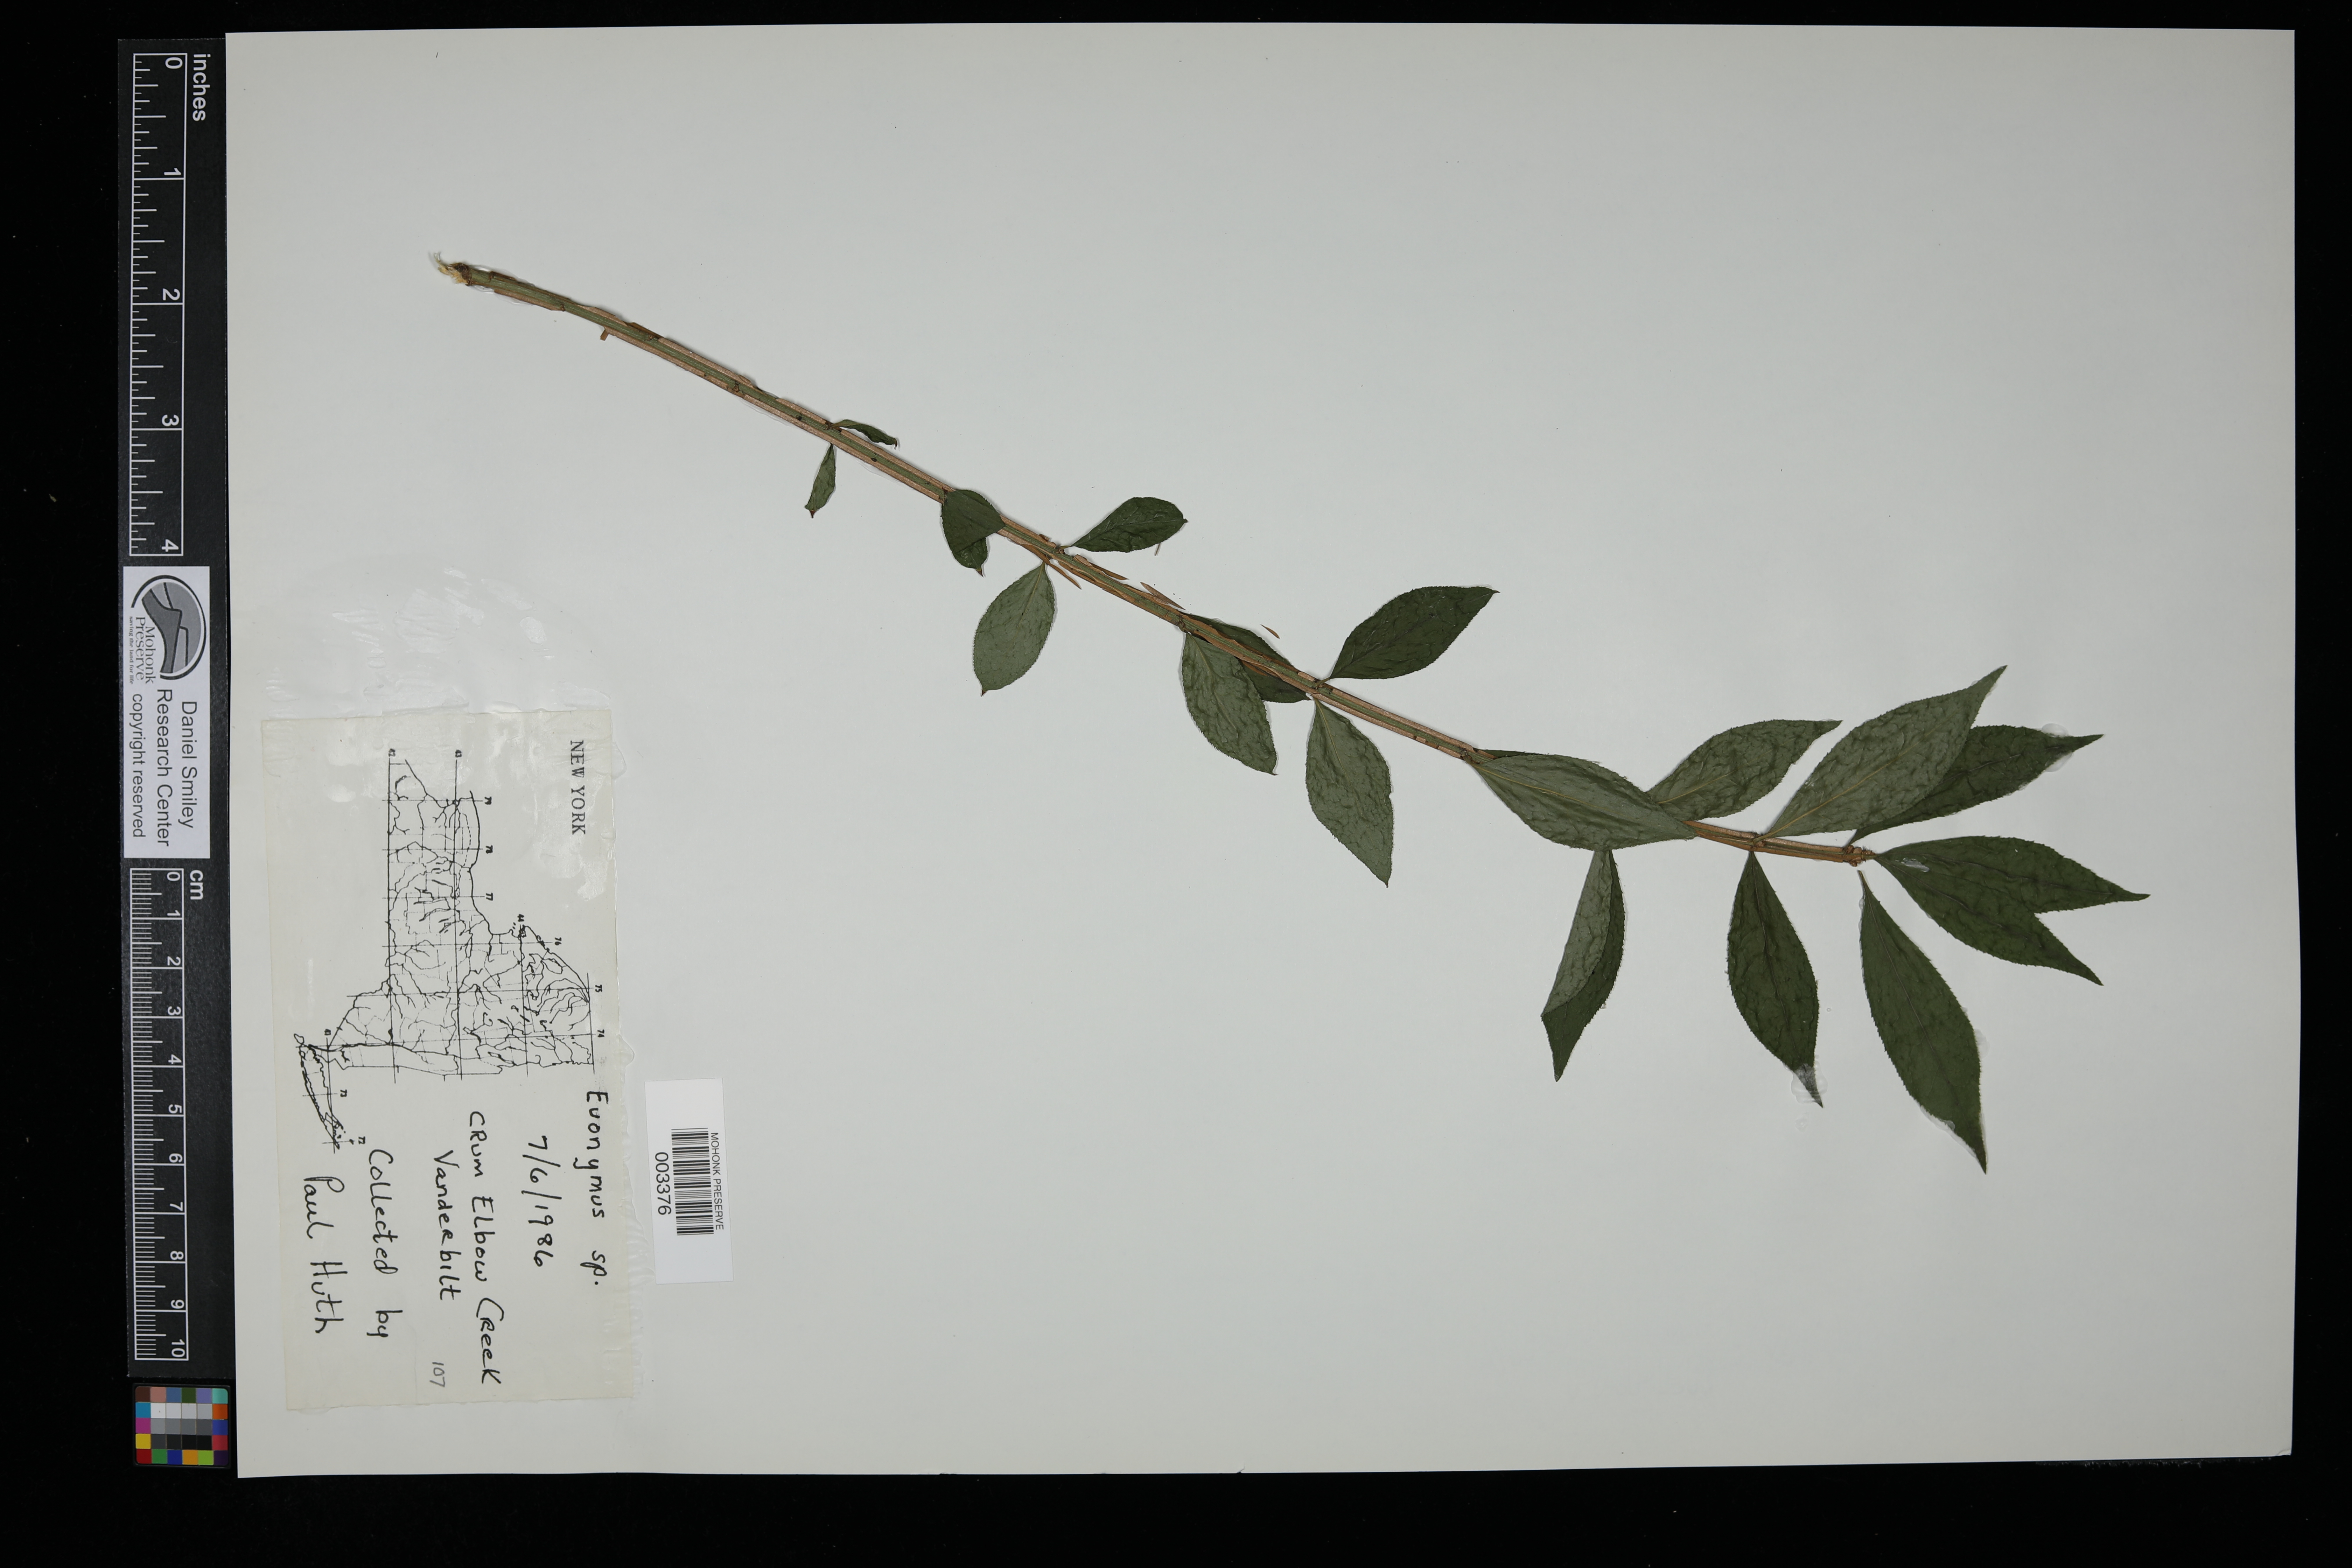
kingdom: Plantae
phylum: Tracheophyta
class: Magnoliopsida
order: Celastrales
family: Celastraceae
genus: Euonymus
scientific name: Euonymus
